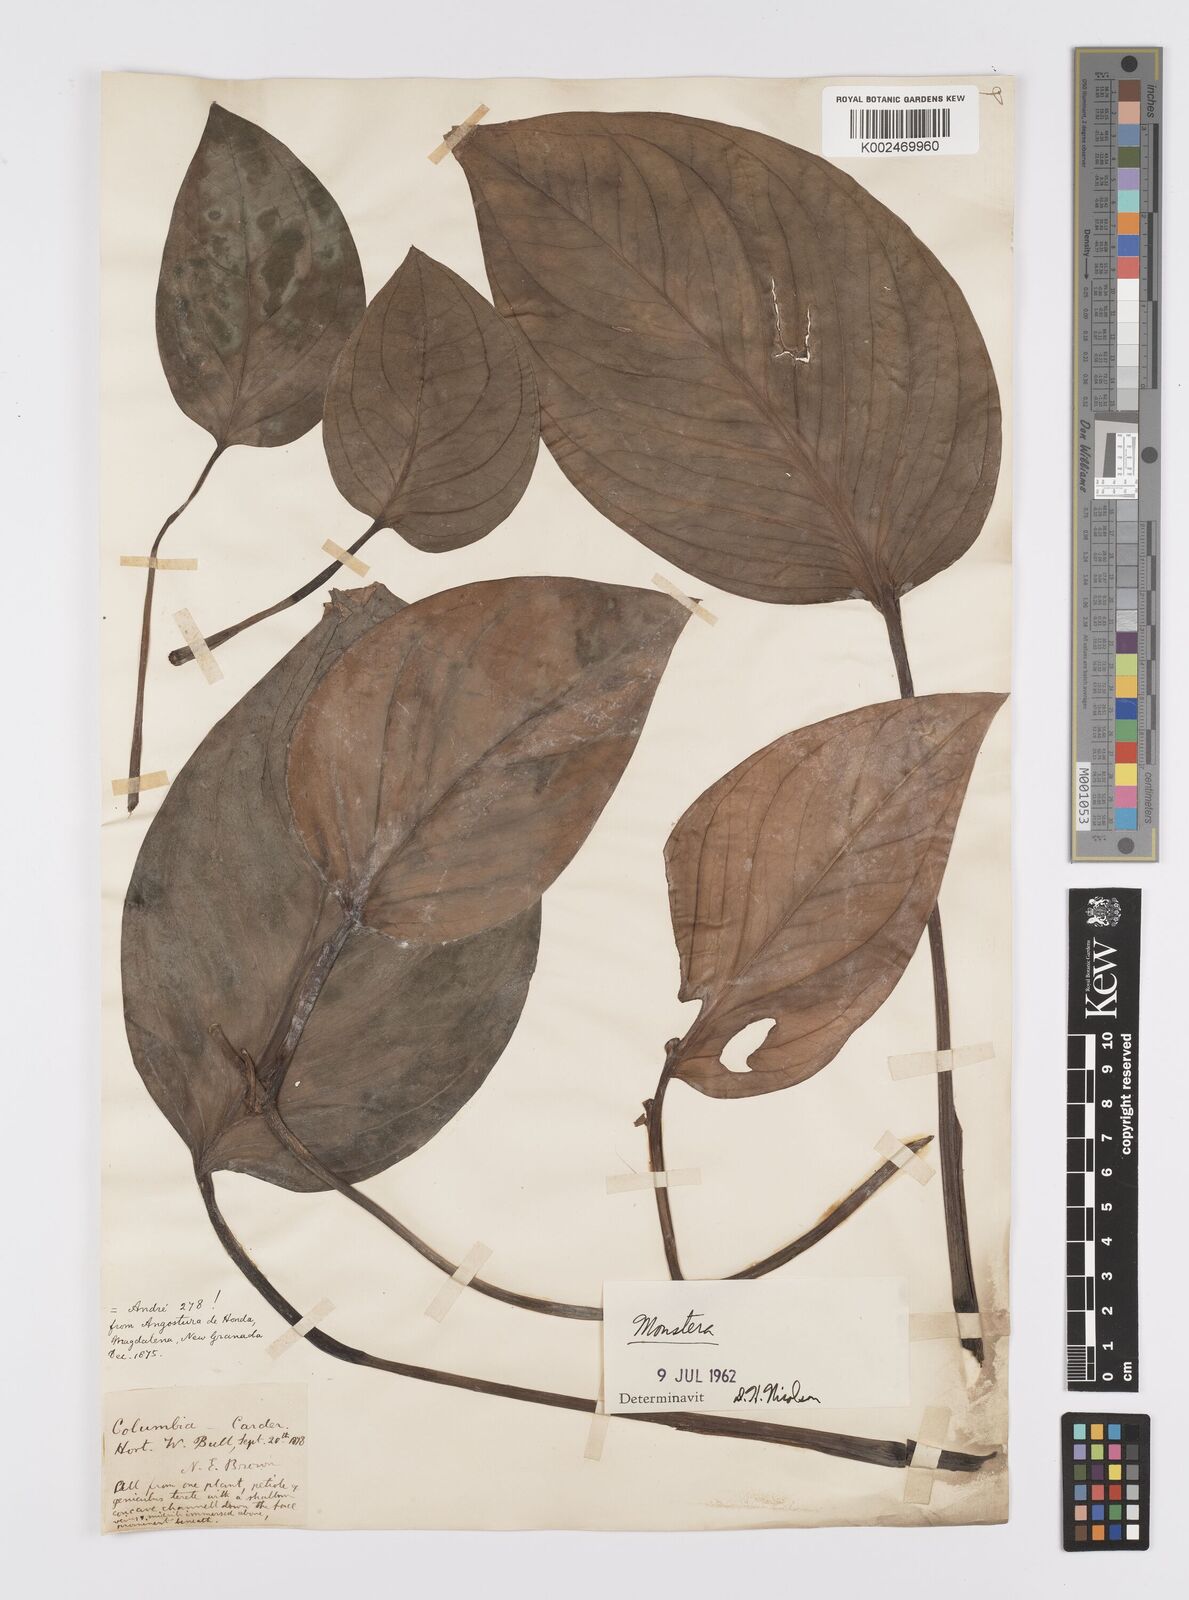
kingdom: Plantae
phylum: Tracheophyta
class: Liliopsida
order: Alismatales
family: Araceae
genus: Monstera
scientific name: Monstera
